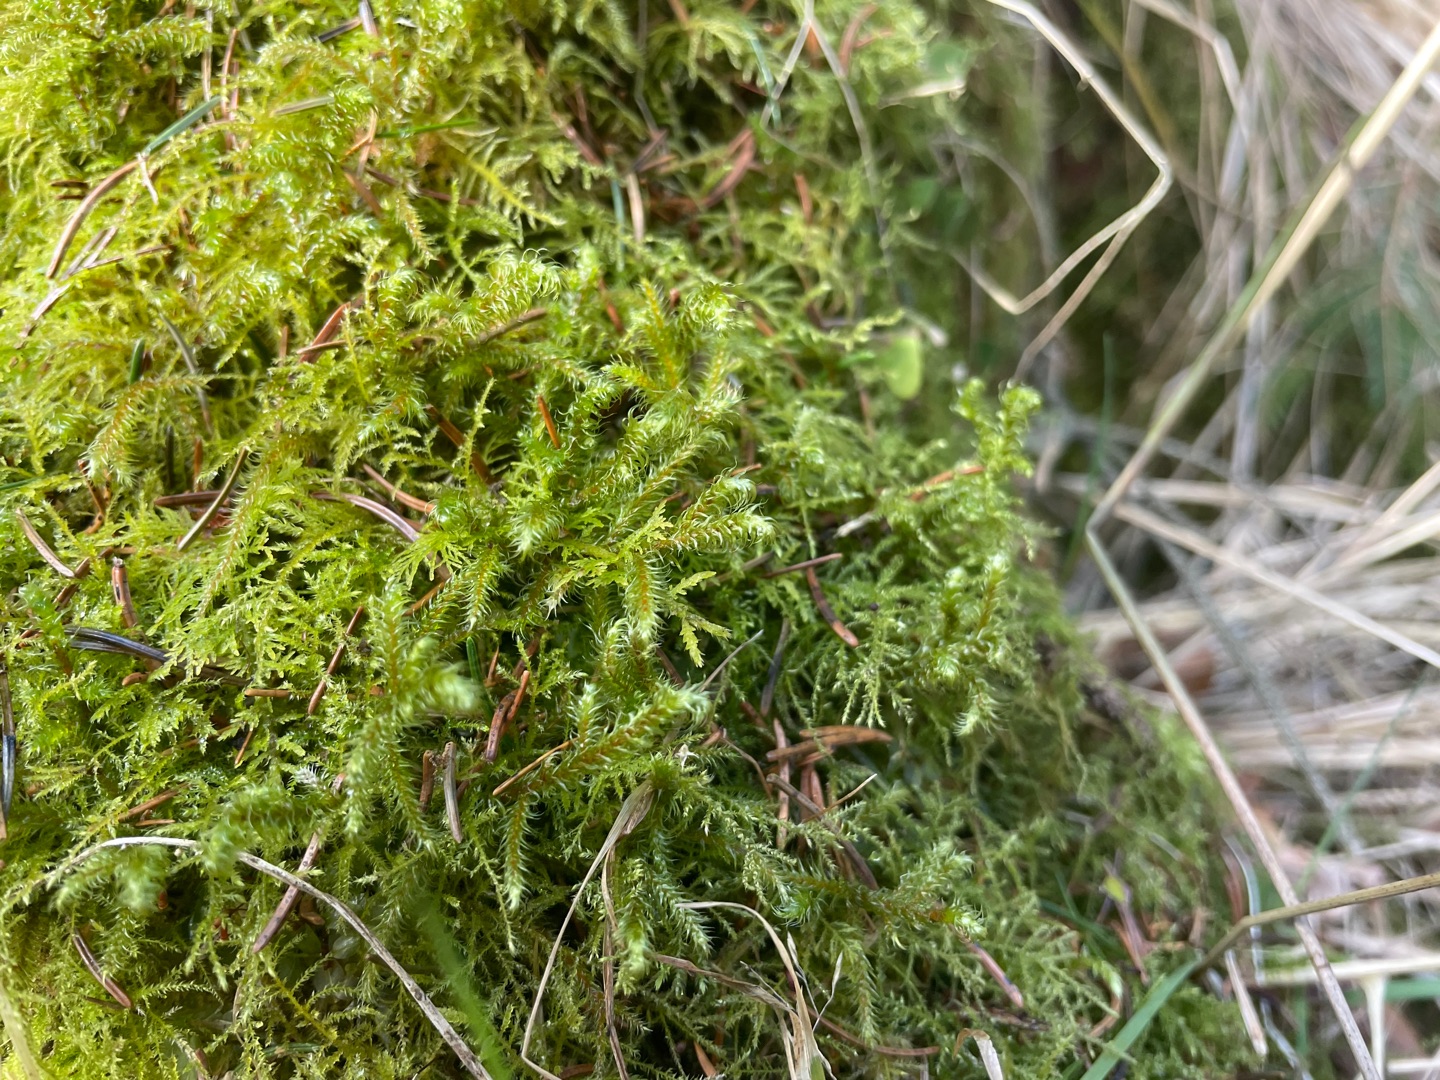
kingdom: Plantae
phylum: Bryophyta
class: Bryopsida
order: Hypnales
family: Hylocomiaceae
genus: Rhytidiadelphus
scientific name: Rhytidiadelphus loreus
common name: Ulvefod-kransemos
